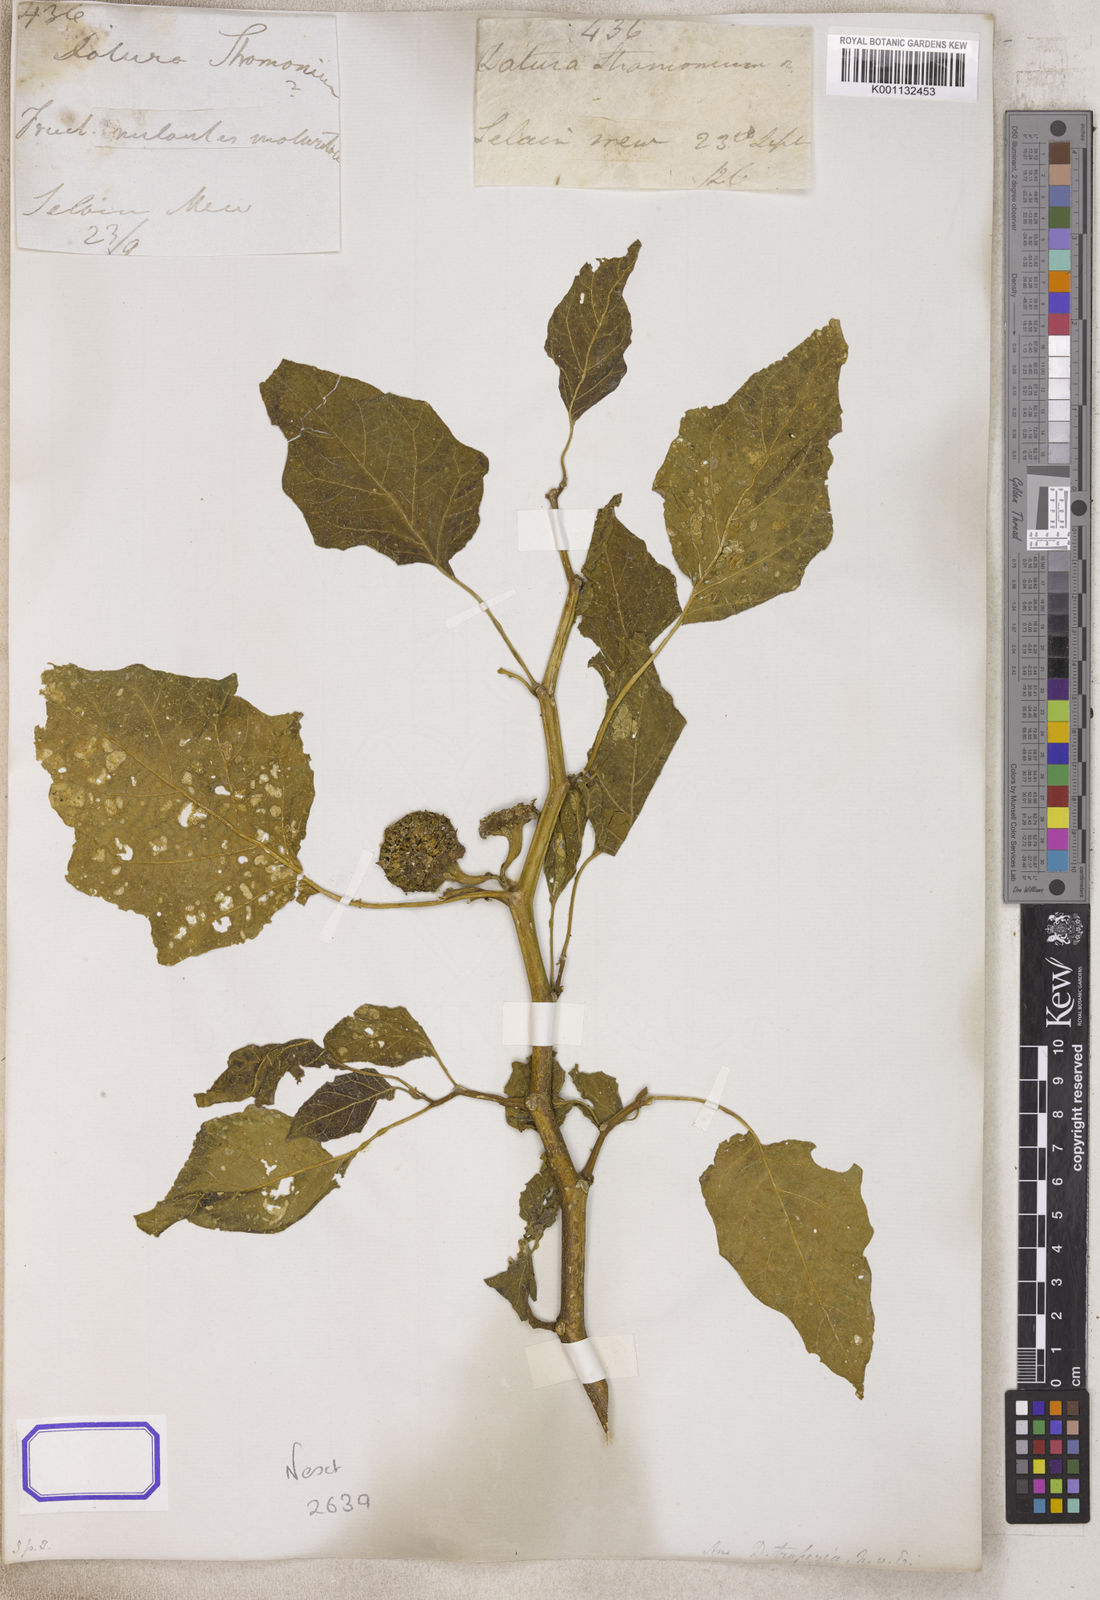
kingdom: Plantae
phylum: Tracheophyta
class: Magnoliopsida
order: Solanales
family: Solanaceae
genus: Datura
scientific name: Datura
